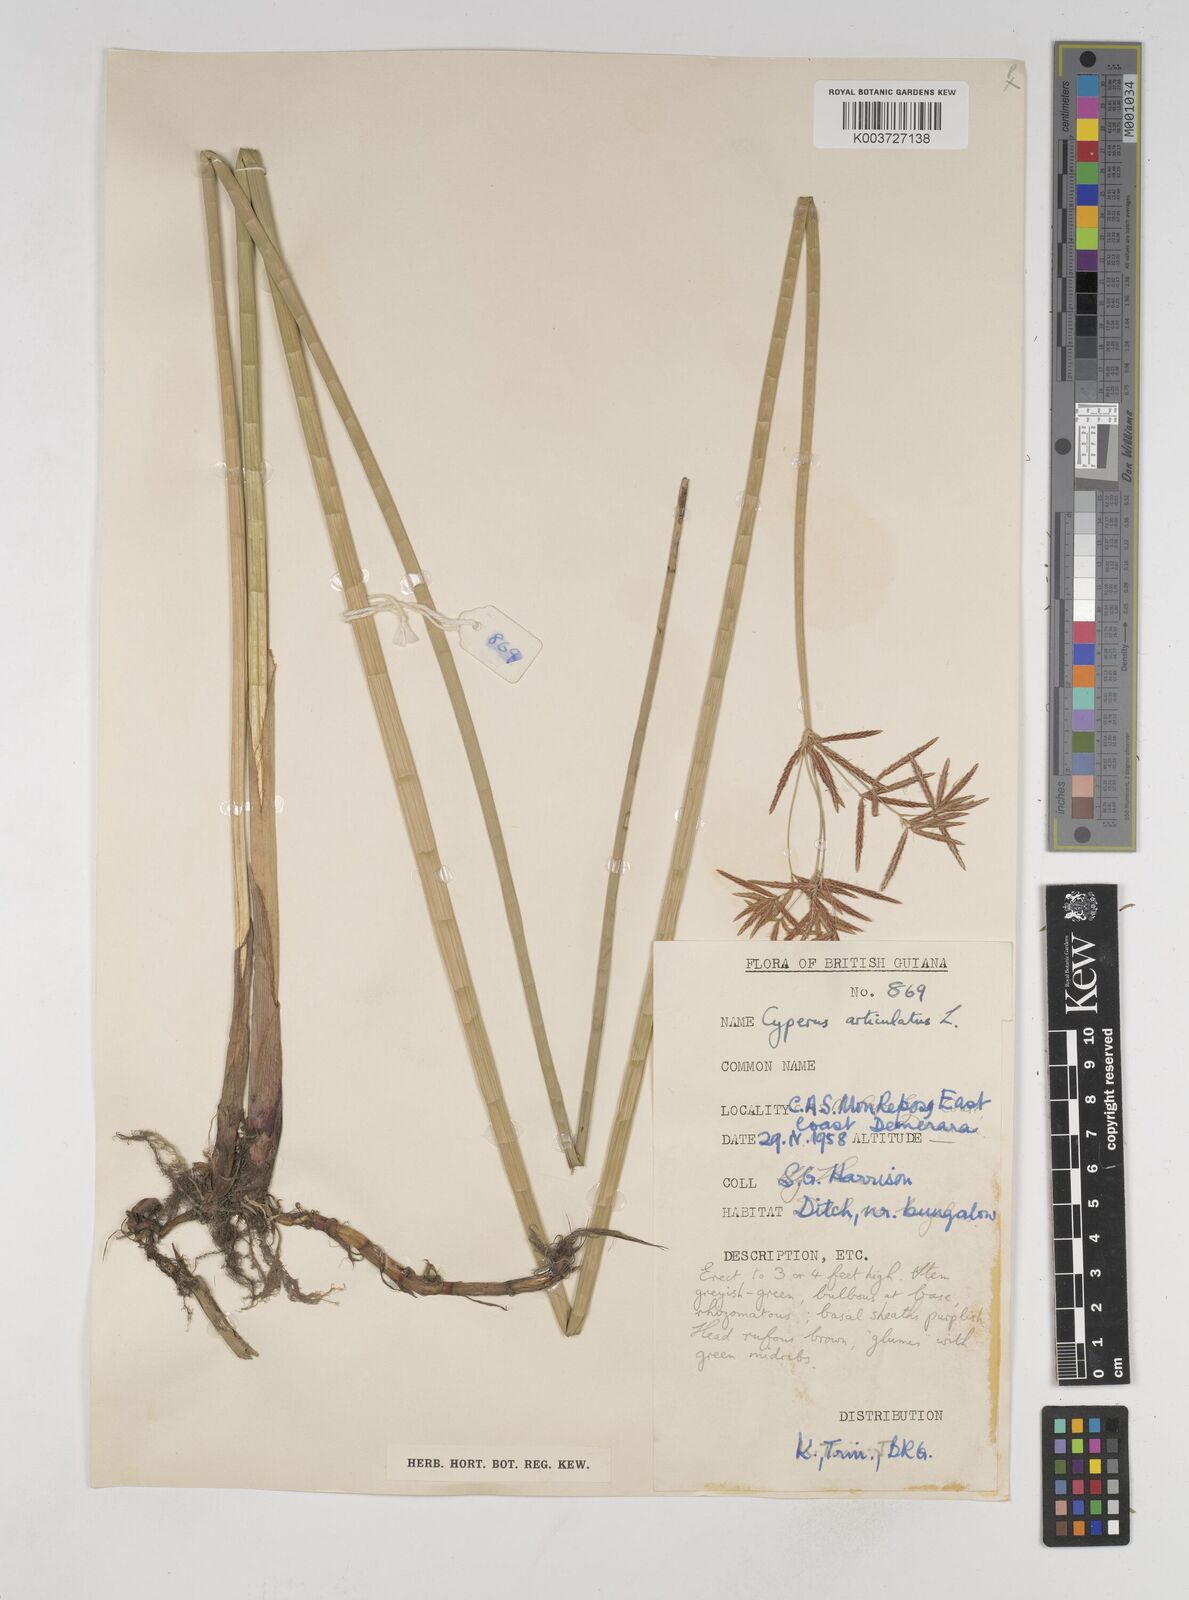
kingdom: Plantae
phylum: Tracheophyta
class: Liliopsida
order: Poales
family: Cyperaceae
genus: Cyperus
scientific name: Cyperus articulatus
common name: Jointed flatsedge
